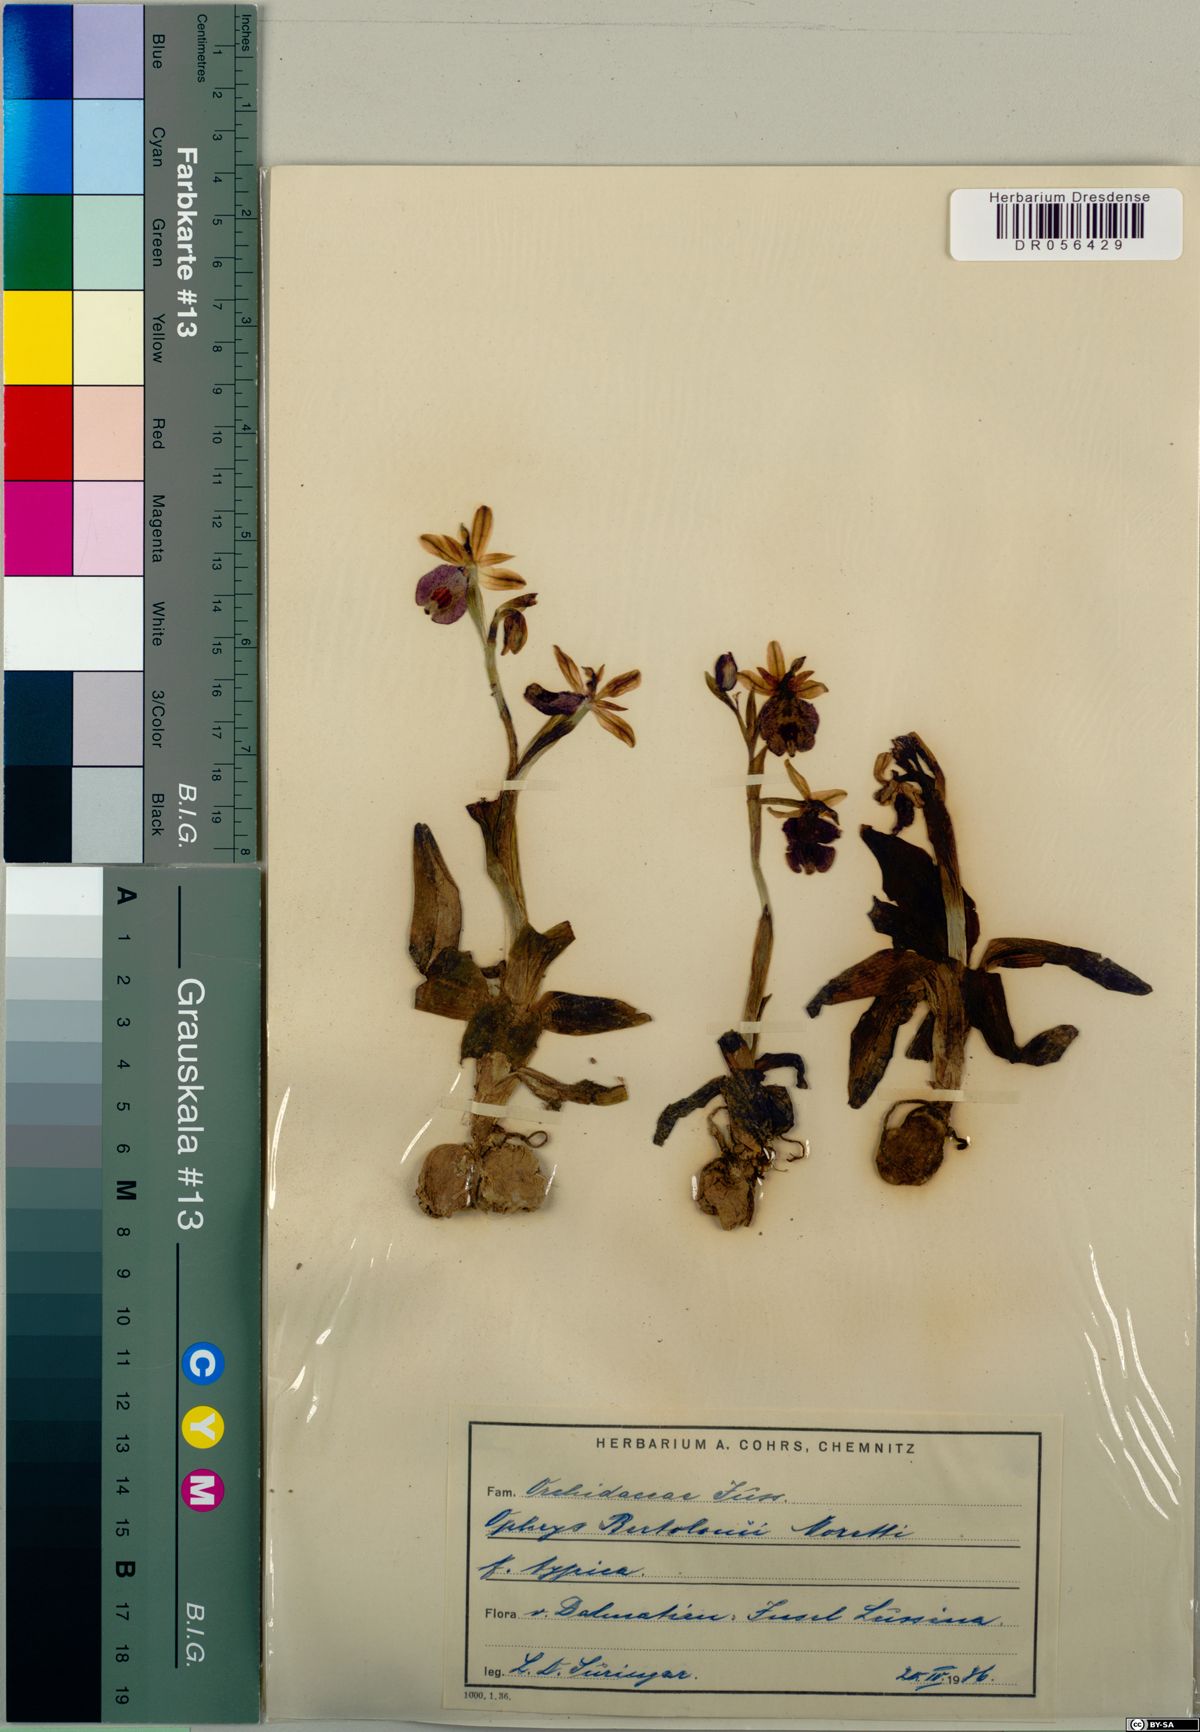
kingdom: Plantae
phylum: Tracheophyta
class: Liliopsida
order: Asparagales
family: Orchidaceae
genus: Ophrys
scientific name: Ophrys bertolonii
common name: Bertoloni's bee orchid
